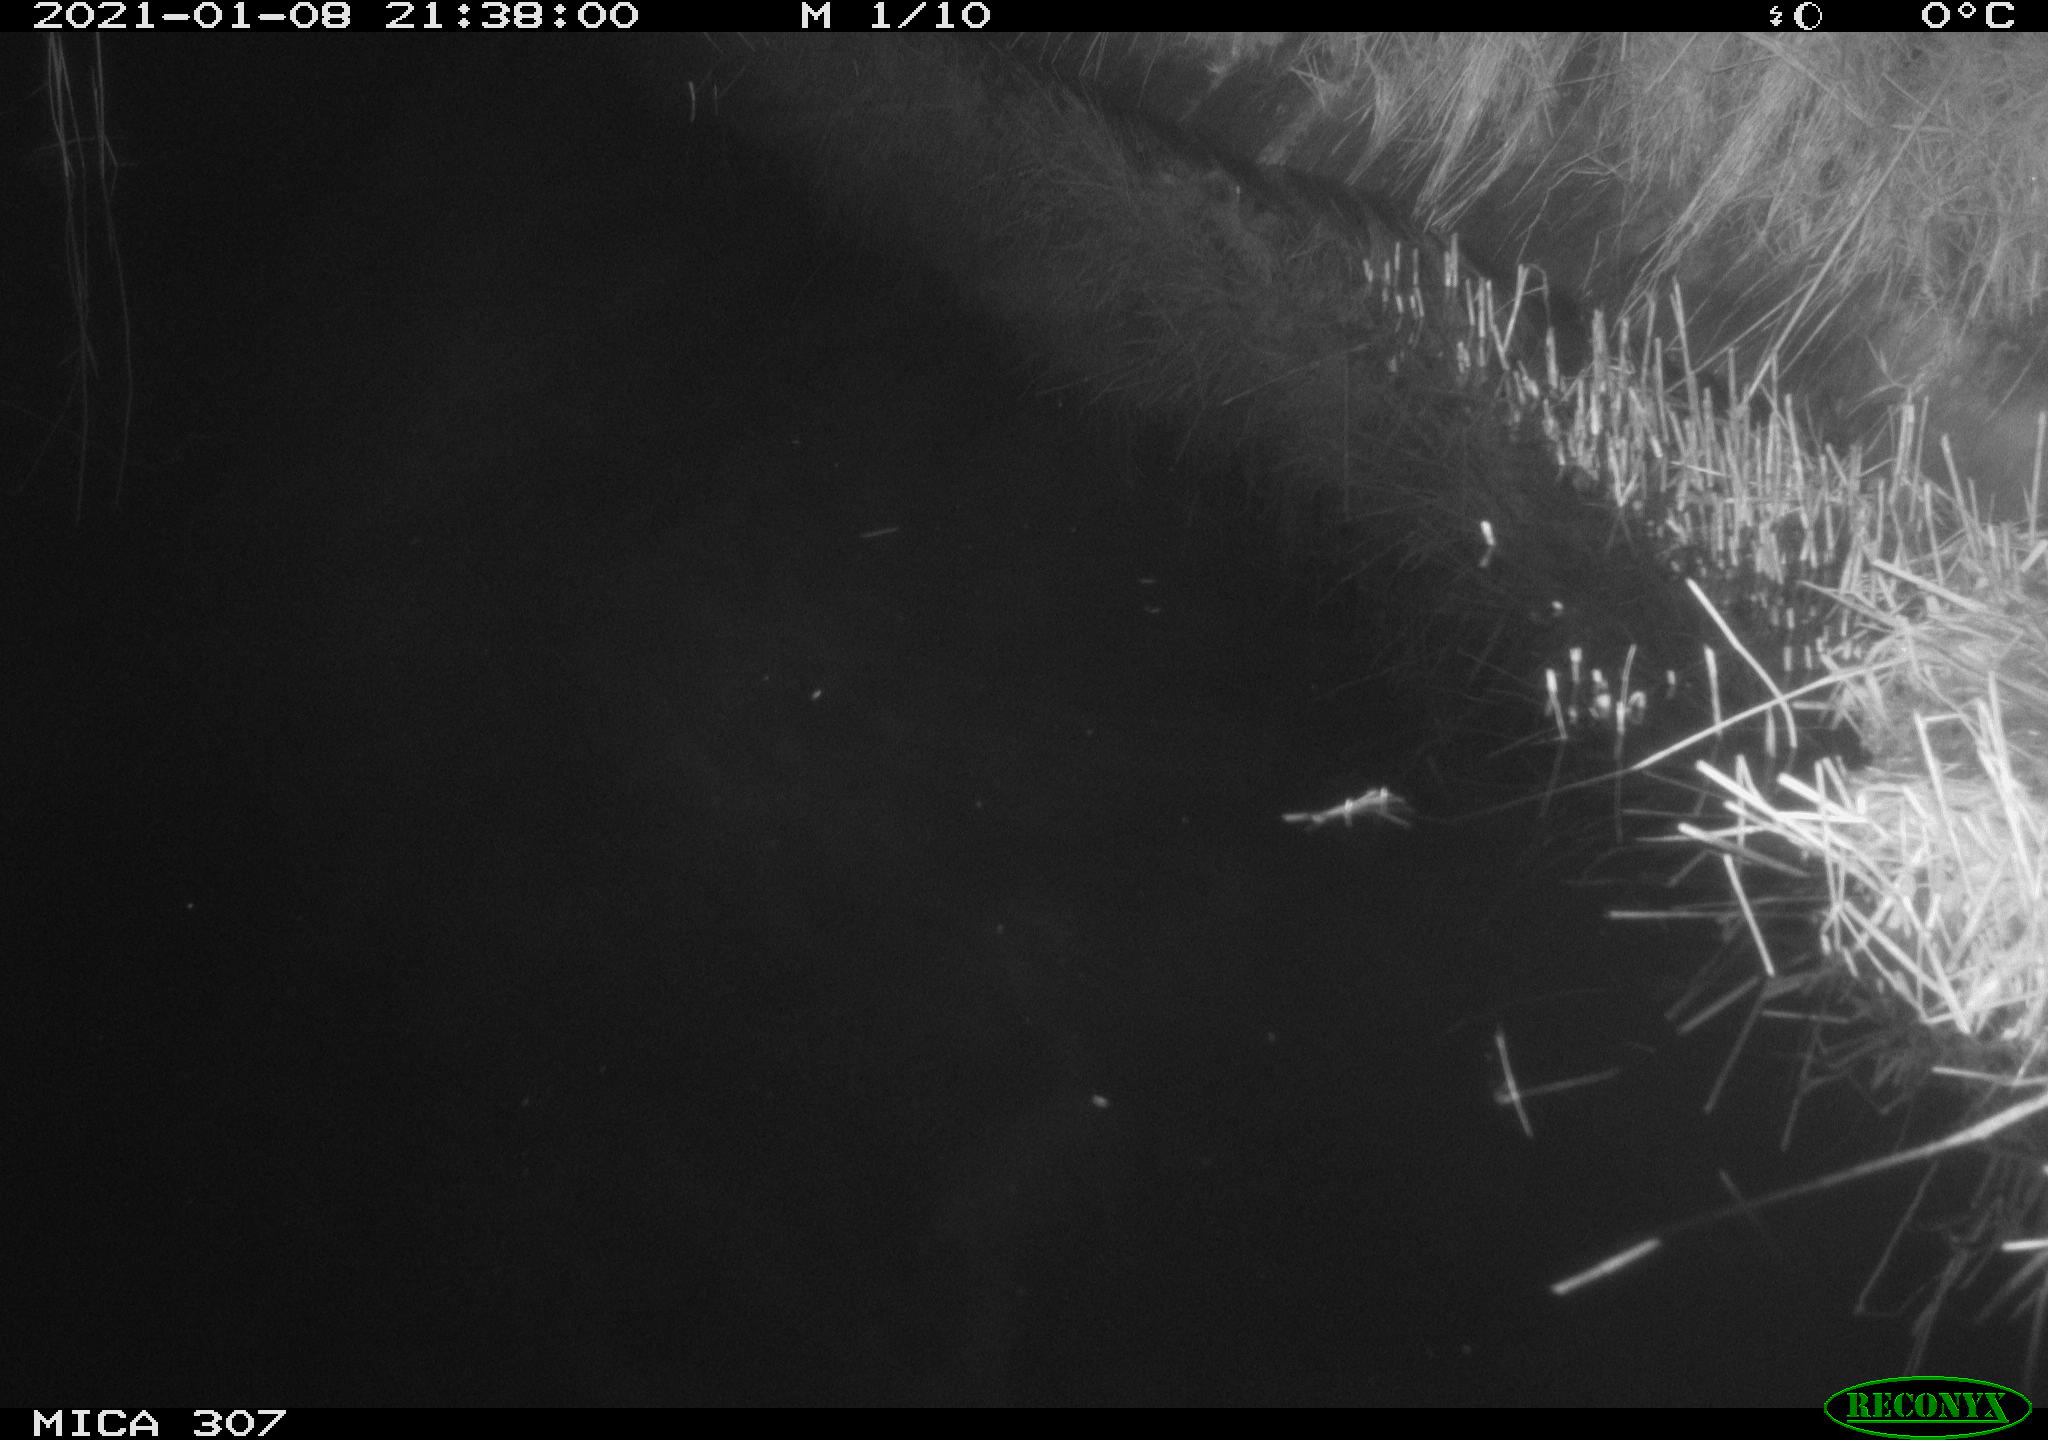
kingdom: Animalia
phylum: Chordata
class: Mammalia
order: Rodentia
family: Muridae
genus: Rattus
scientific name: Rattus norvegicus
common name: Brown rat
